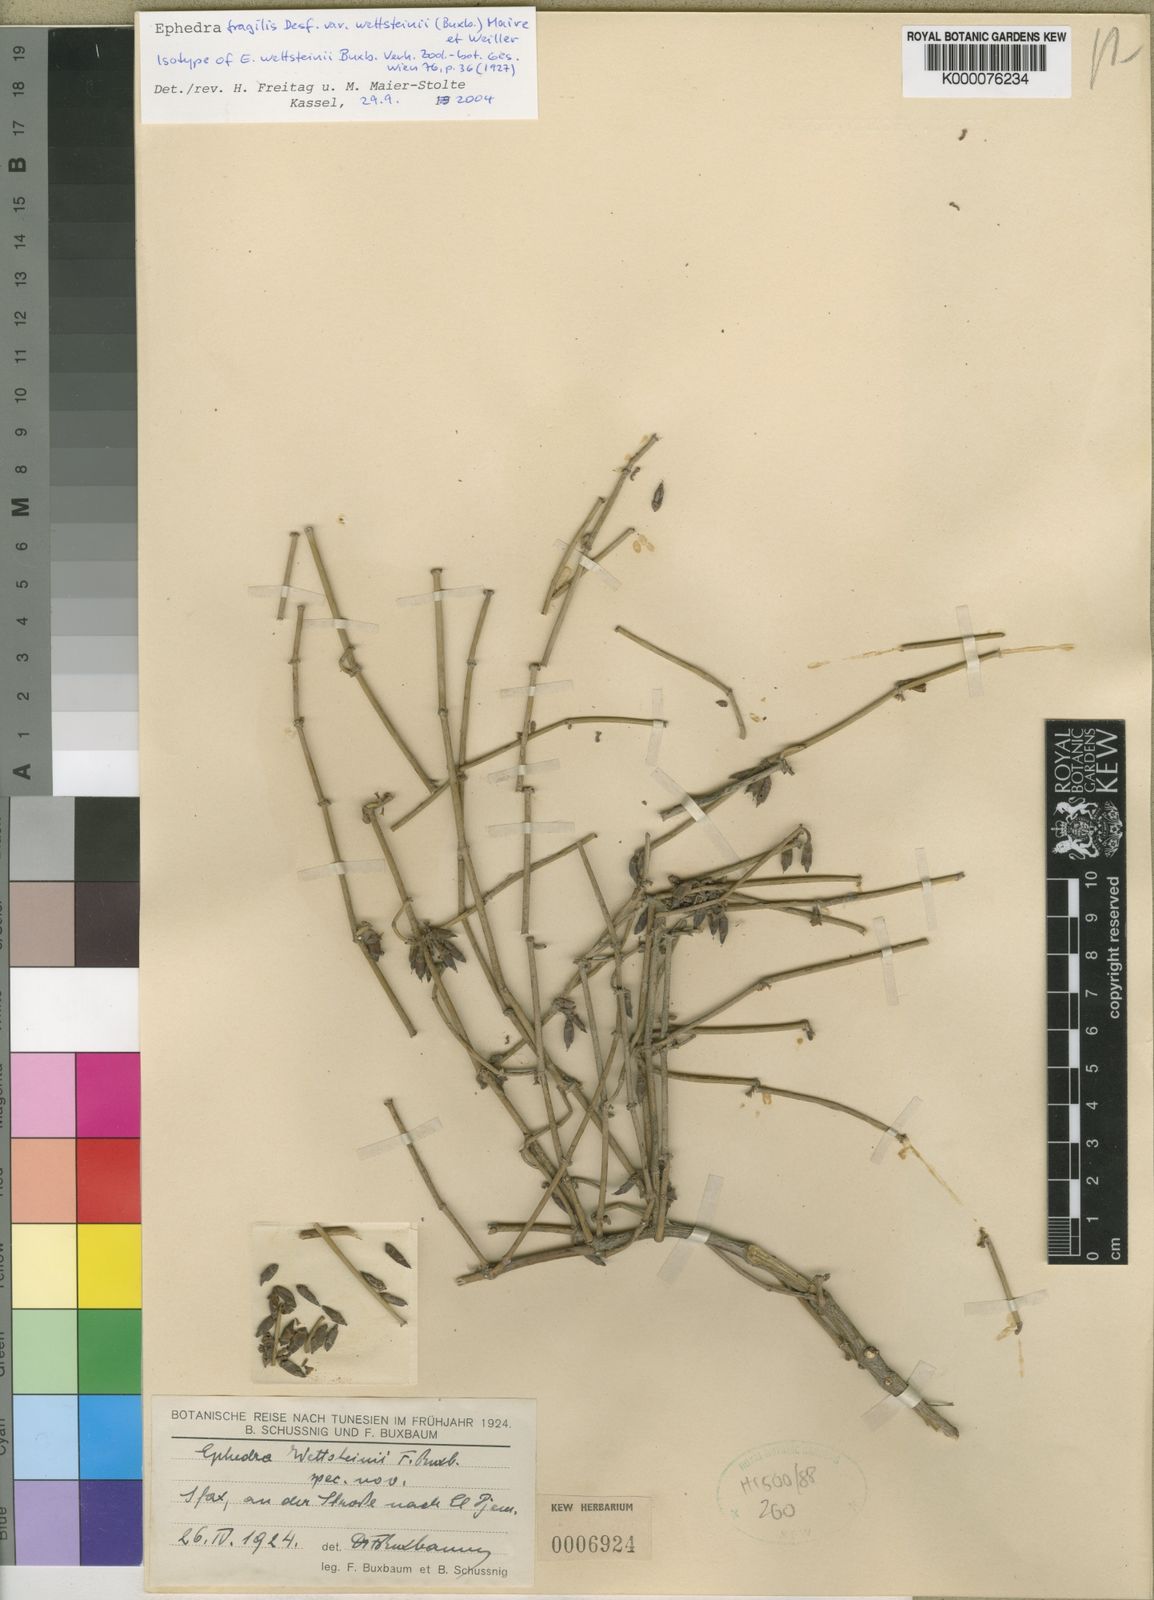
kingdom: Plantae
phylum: Tracheophyta
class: Gnetopsida
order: Ephedrales
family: Ephedraceae
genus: Ephedra
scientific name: Ephedra fragilis
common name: Joint pine
